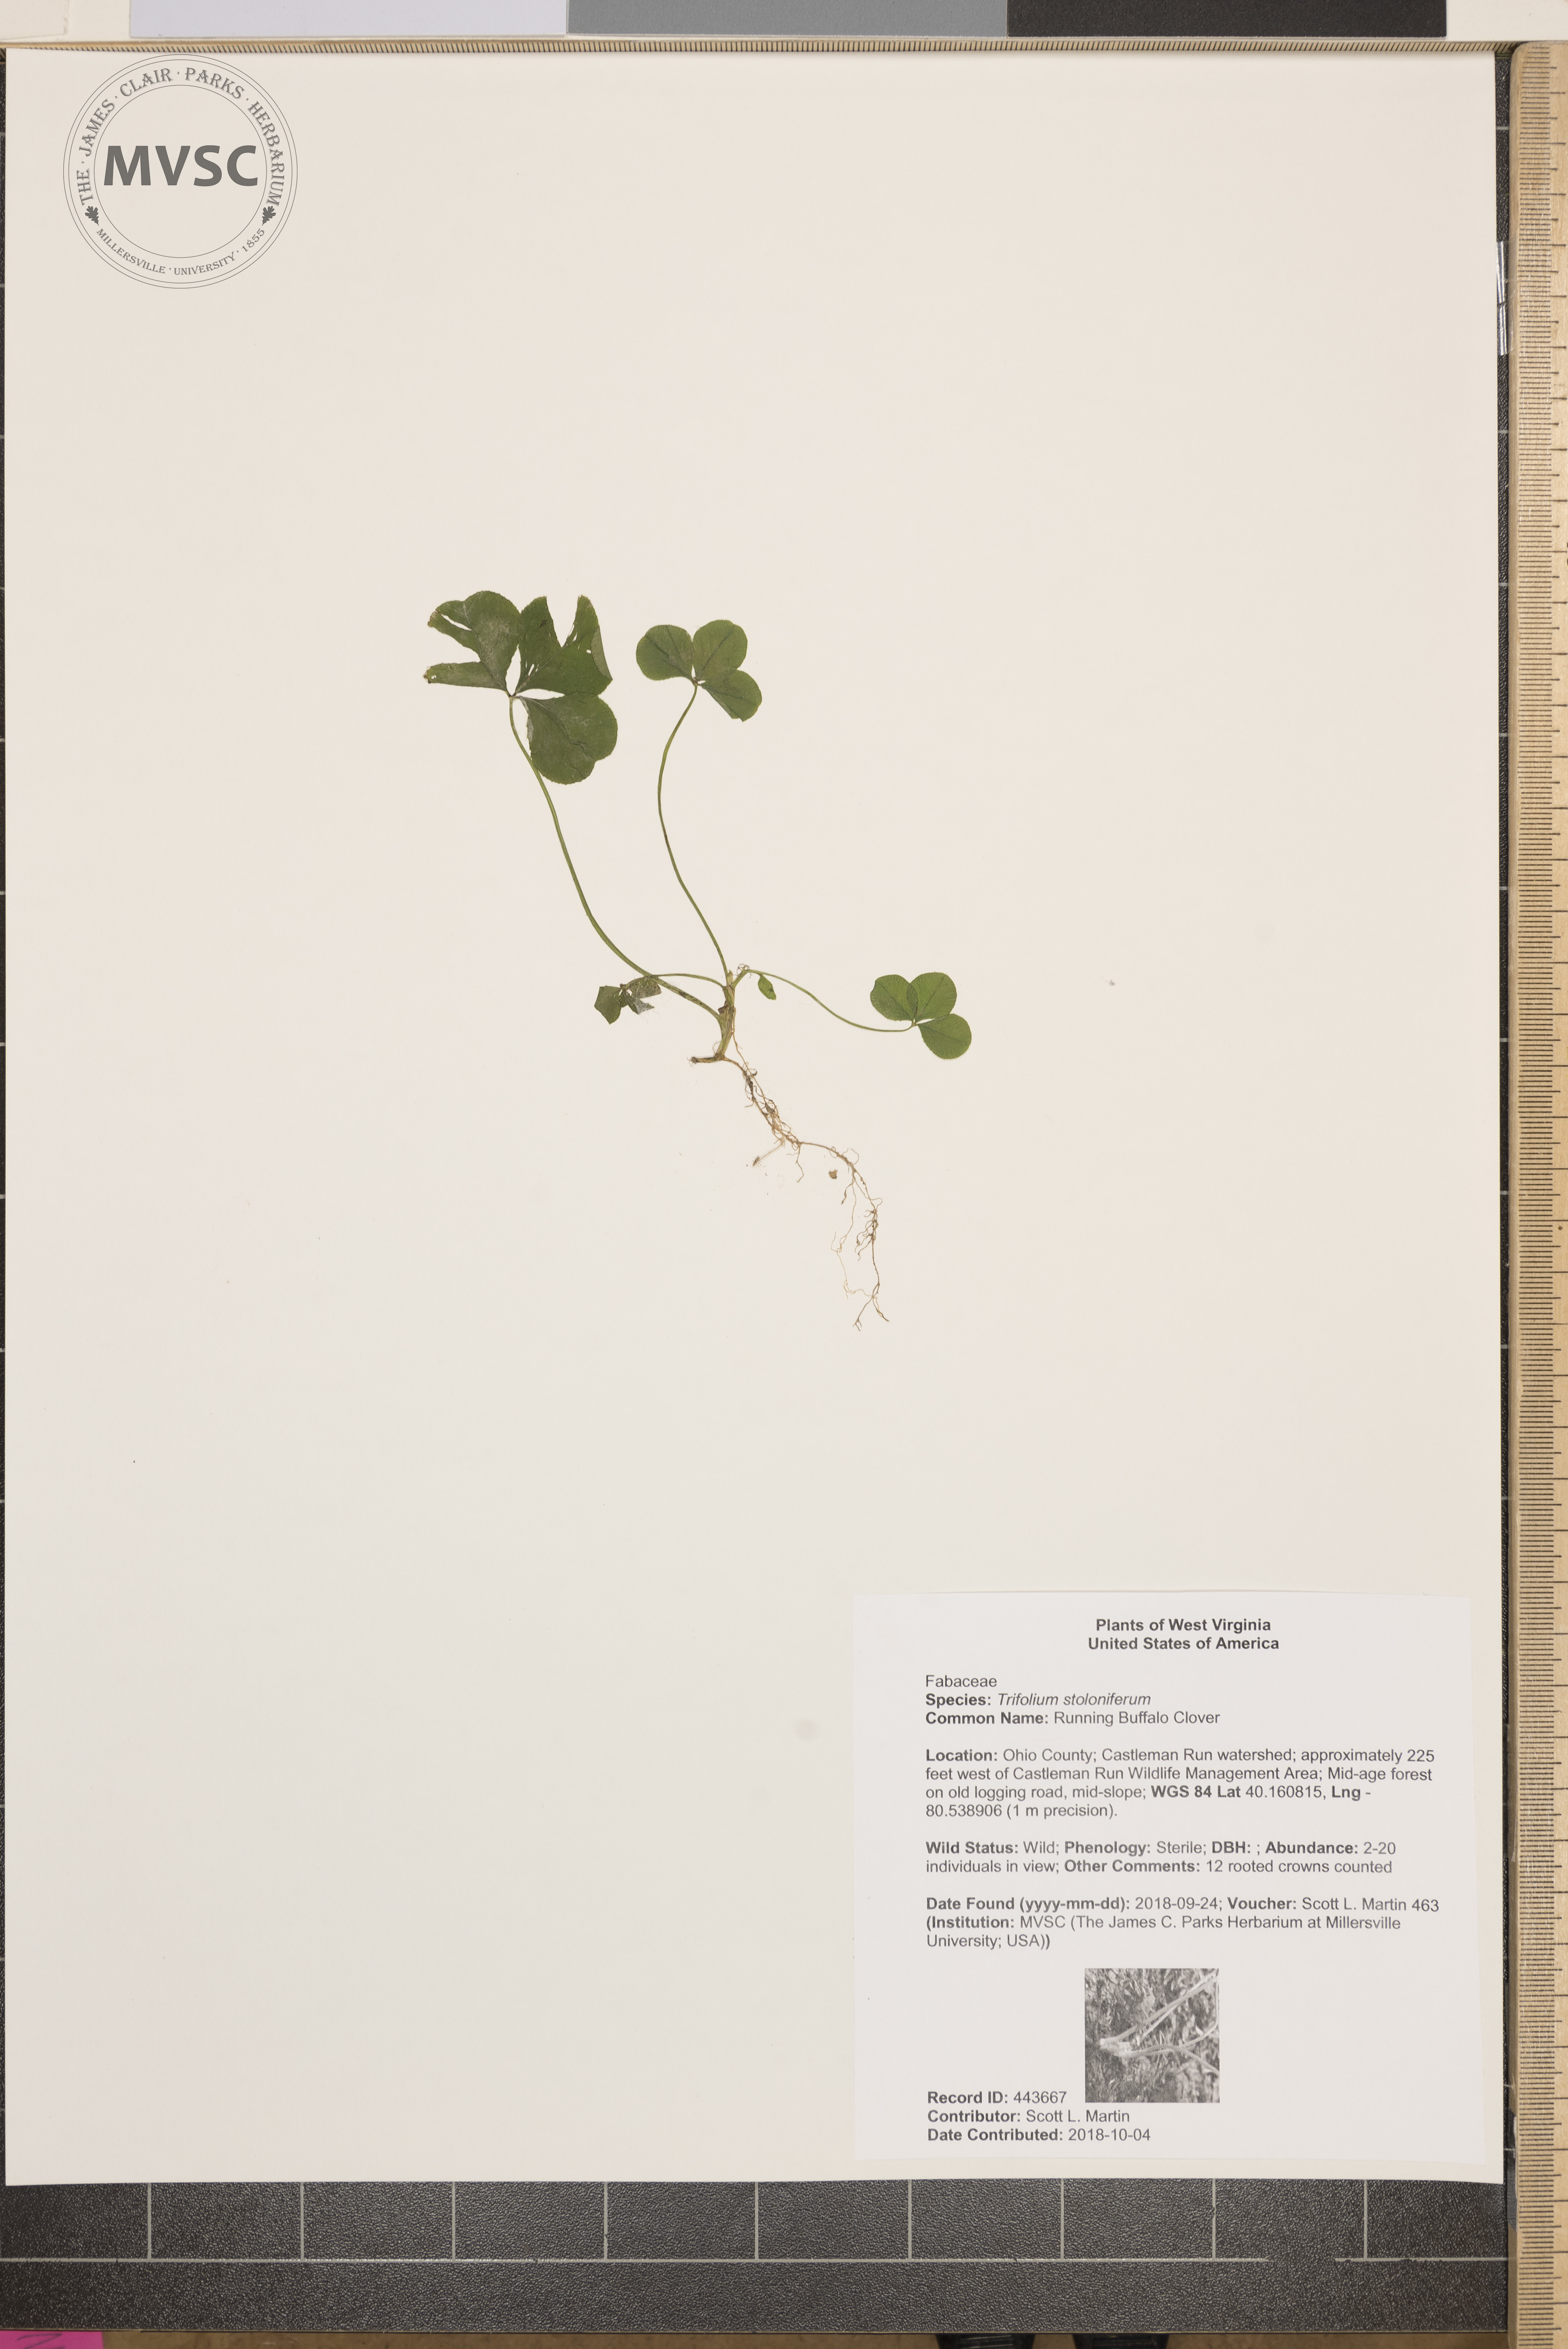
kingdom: Plantae
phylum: Tracheophyta
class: Magnoliopsida
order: Fabales
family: Fabaceae
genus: Trifolium
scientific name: Trifolium stoloniferum
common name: Running Buffalo Clover
